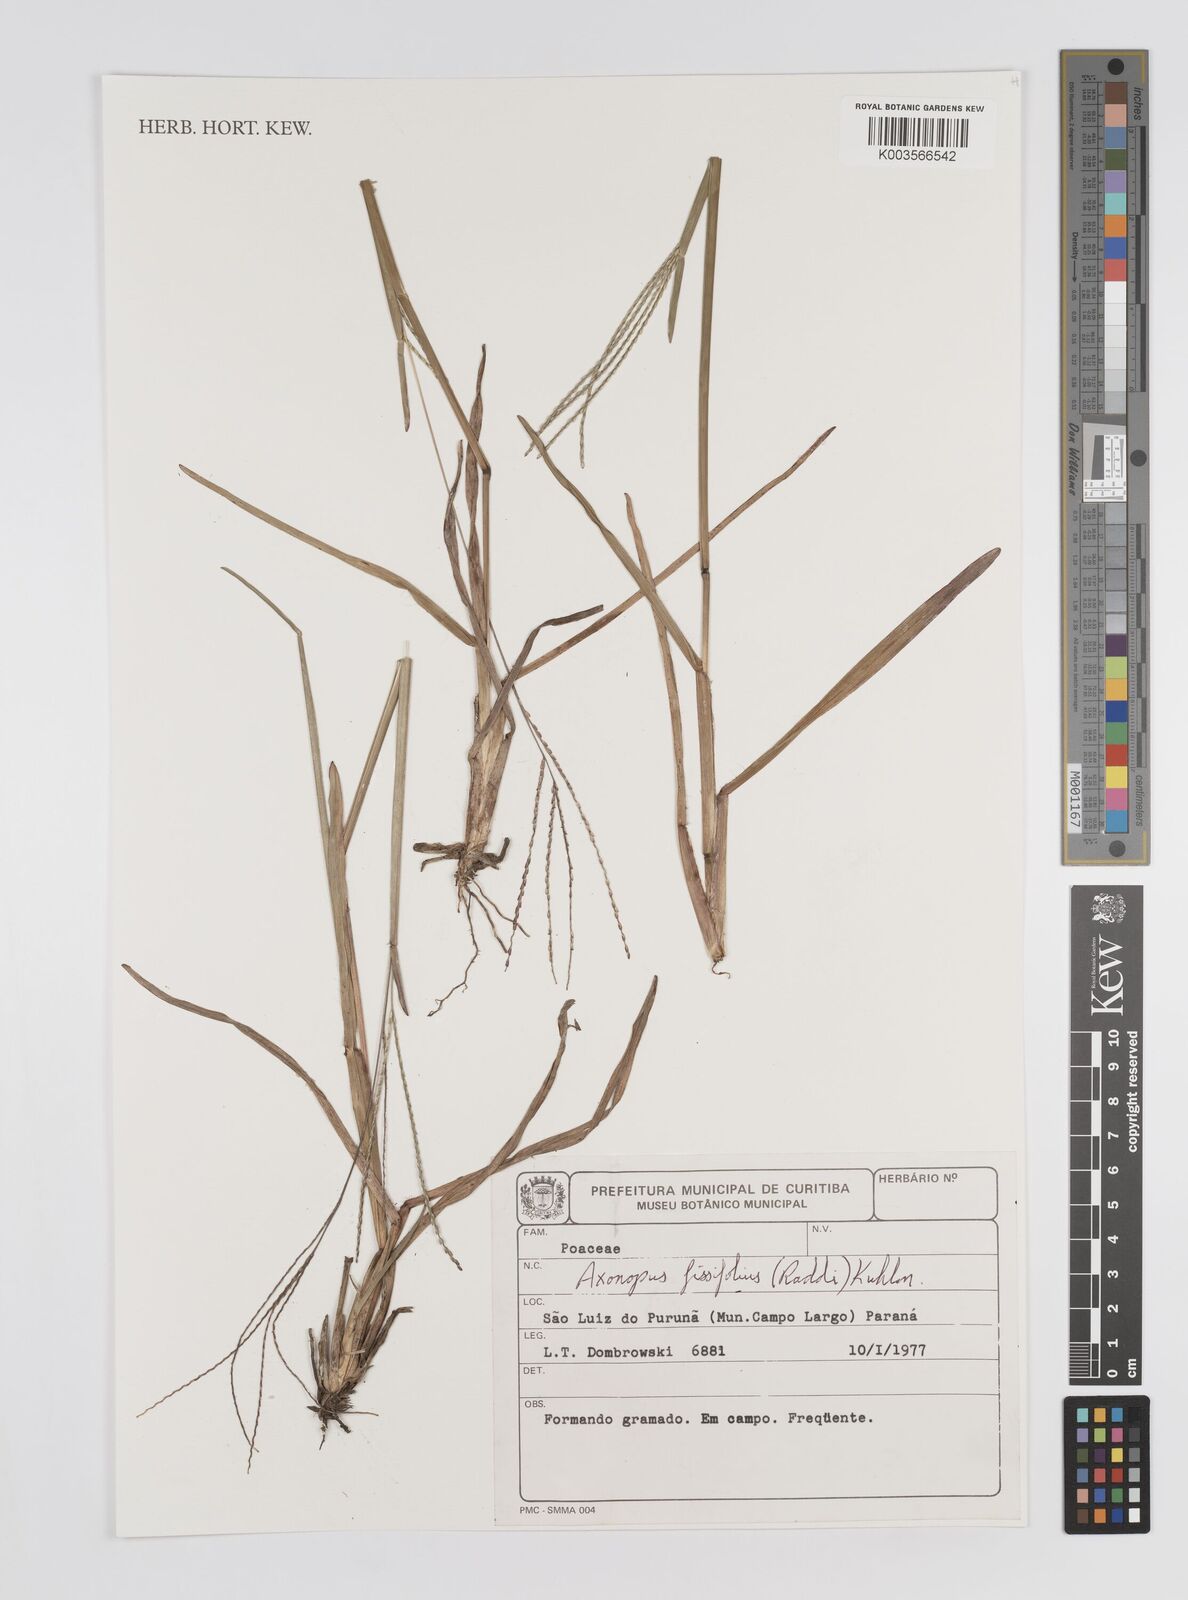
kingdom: Plantae
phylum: Tracheophyta
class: Liliopsida
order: Poales
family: Poaceae
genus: Axonopus
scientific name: Axonopus fissifolius
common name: Common carpetgrass
